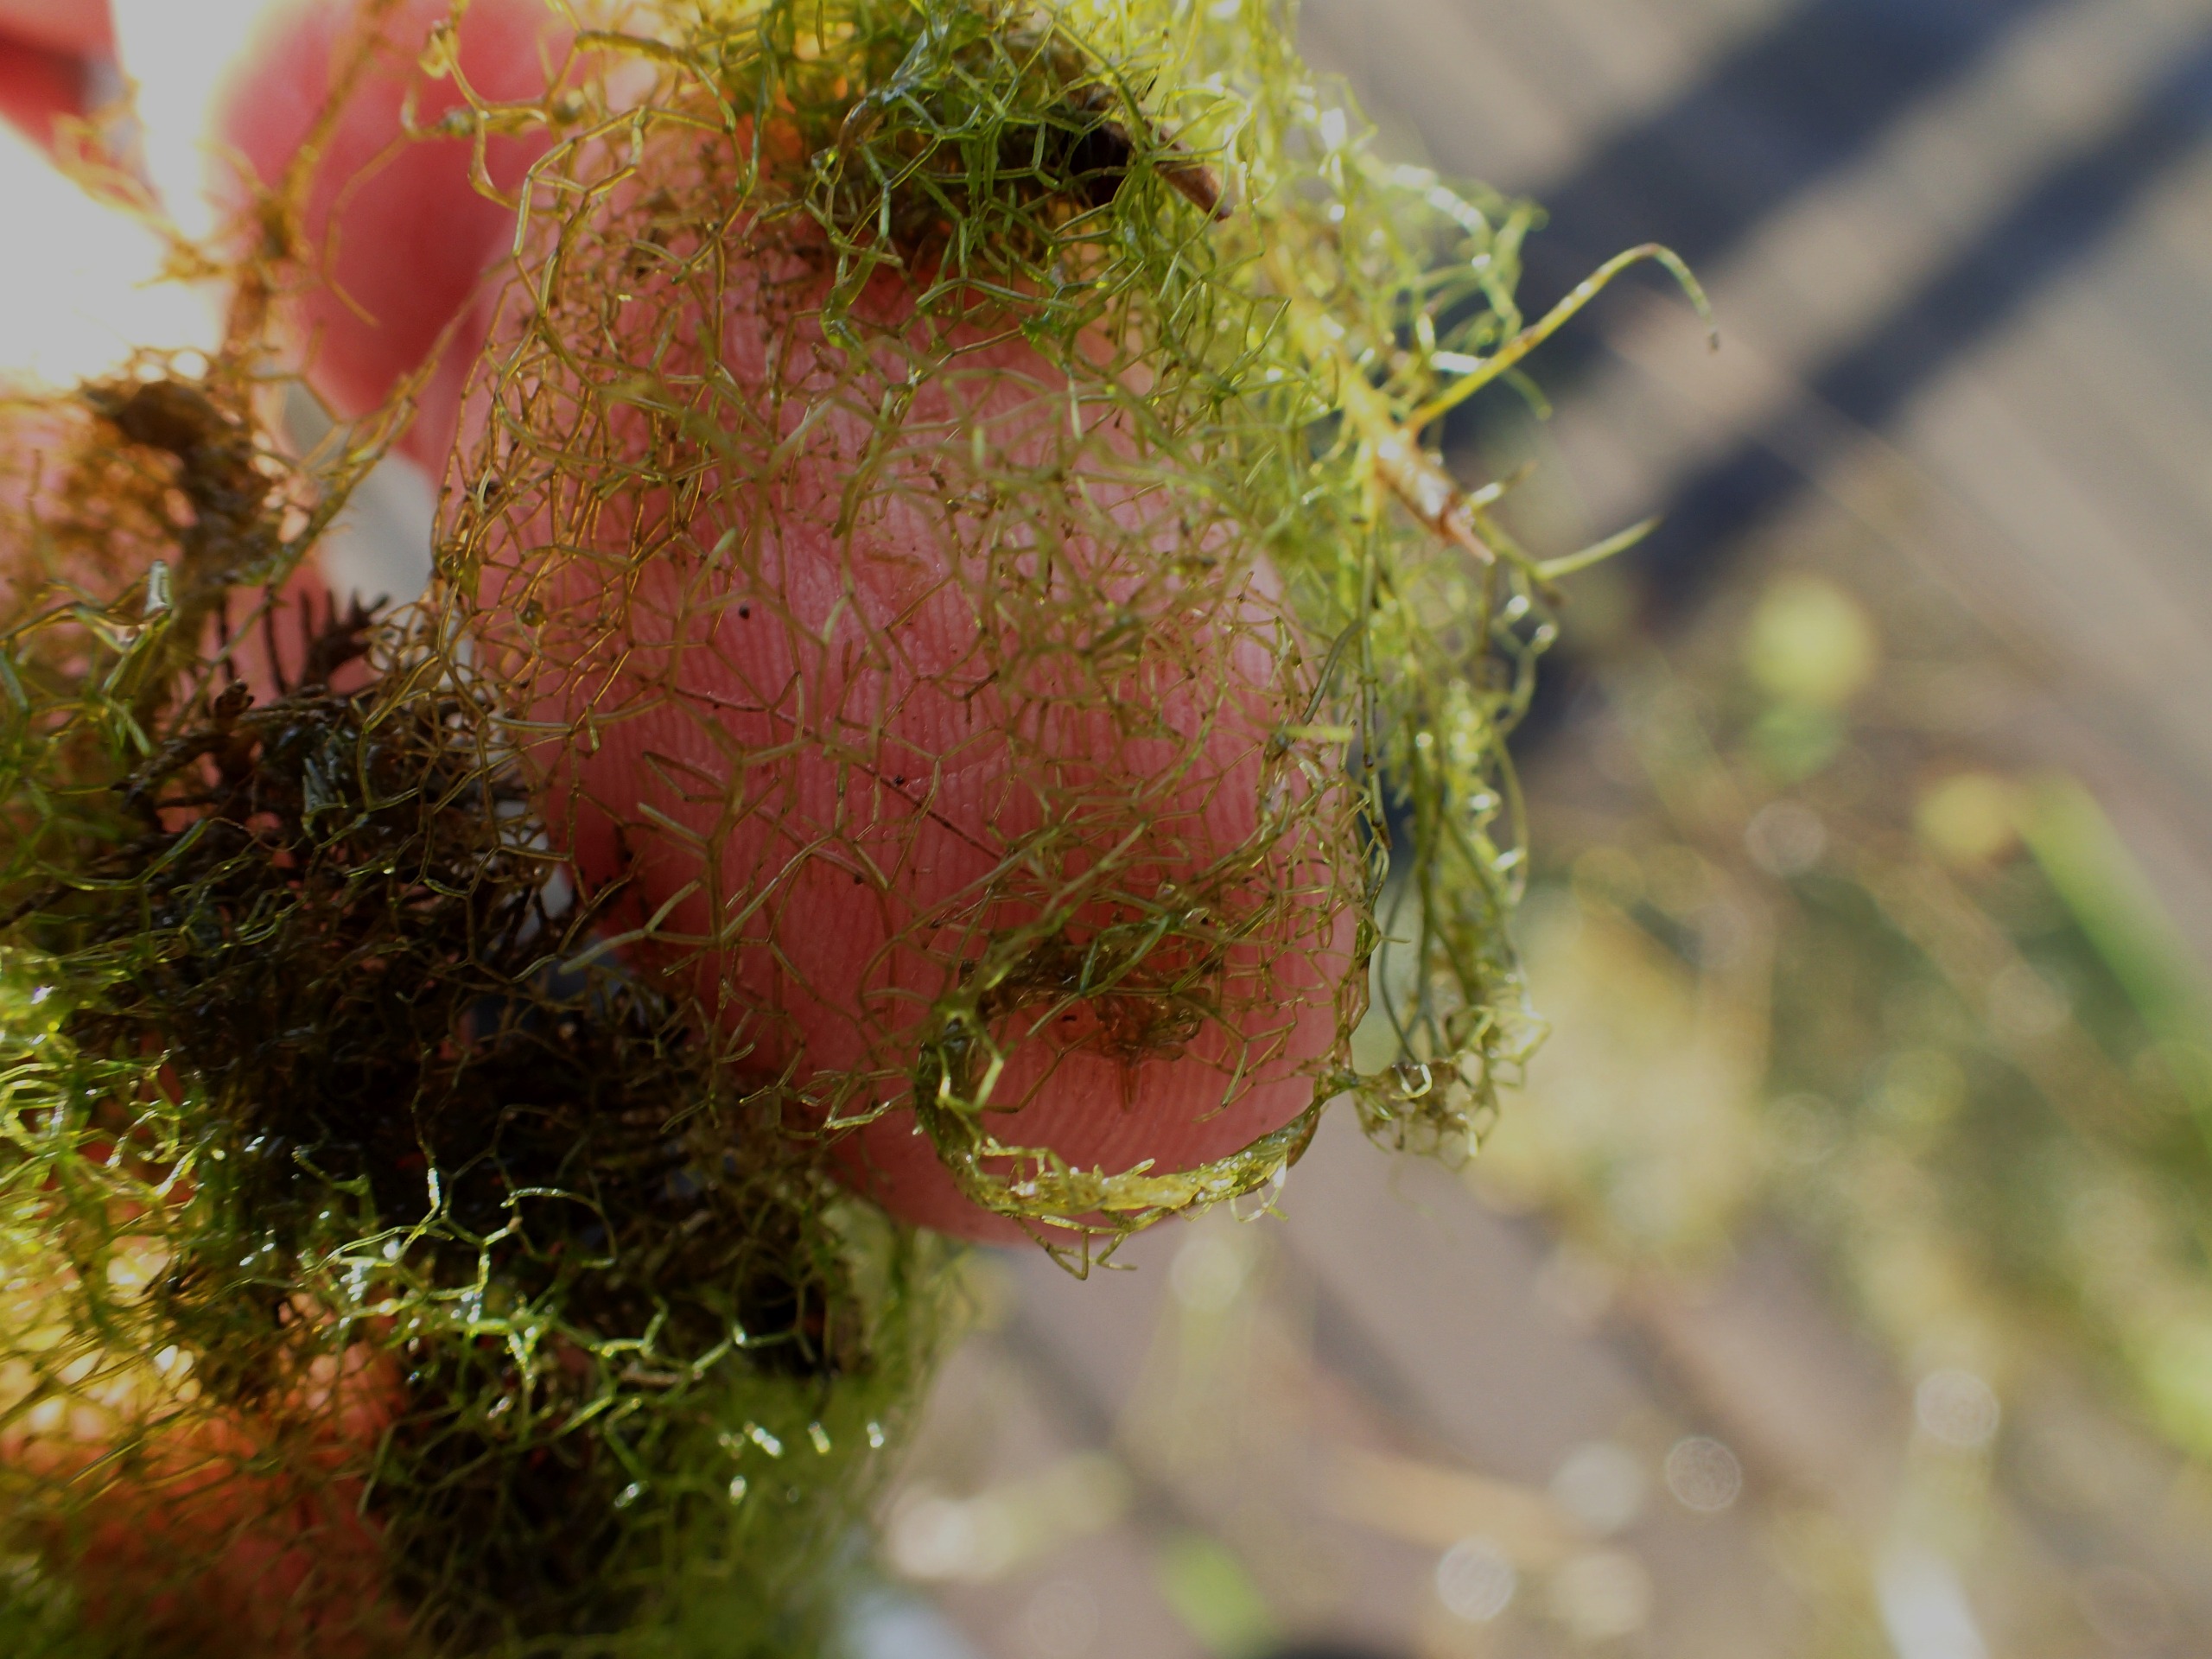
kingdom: Plantae
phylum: Chlorophyta
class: Chlorophyceae
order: Sphaeropleales
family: Hydrodictyaceae
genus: Hydrodictyon
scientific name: Hydrodictyon reticulatum
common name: Vandnet
